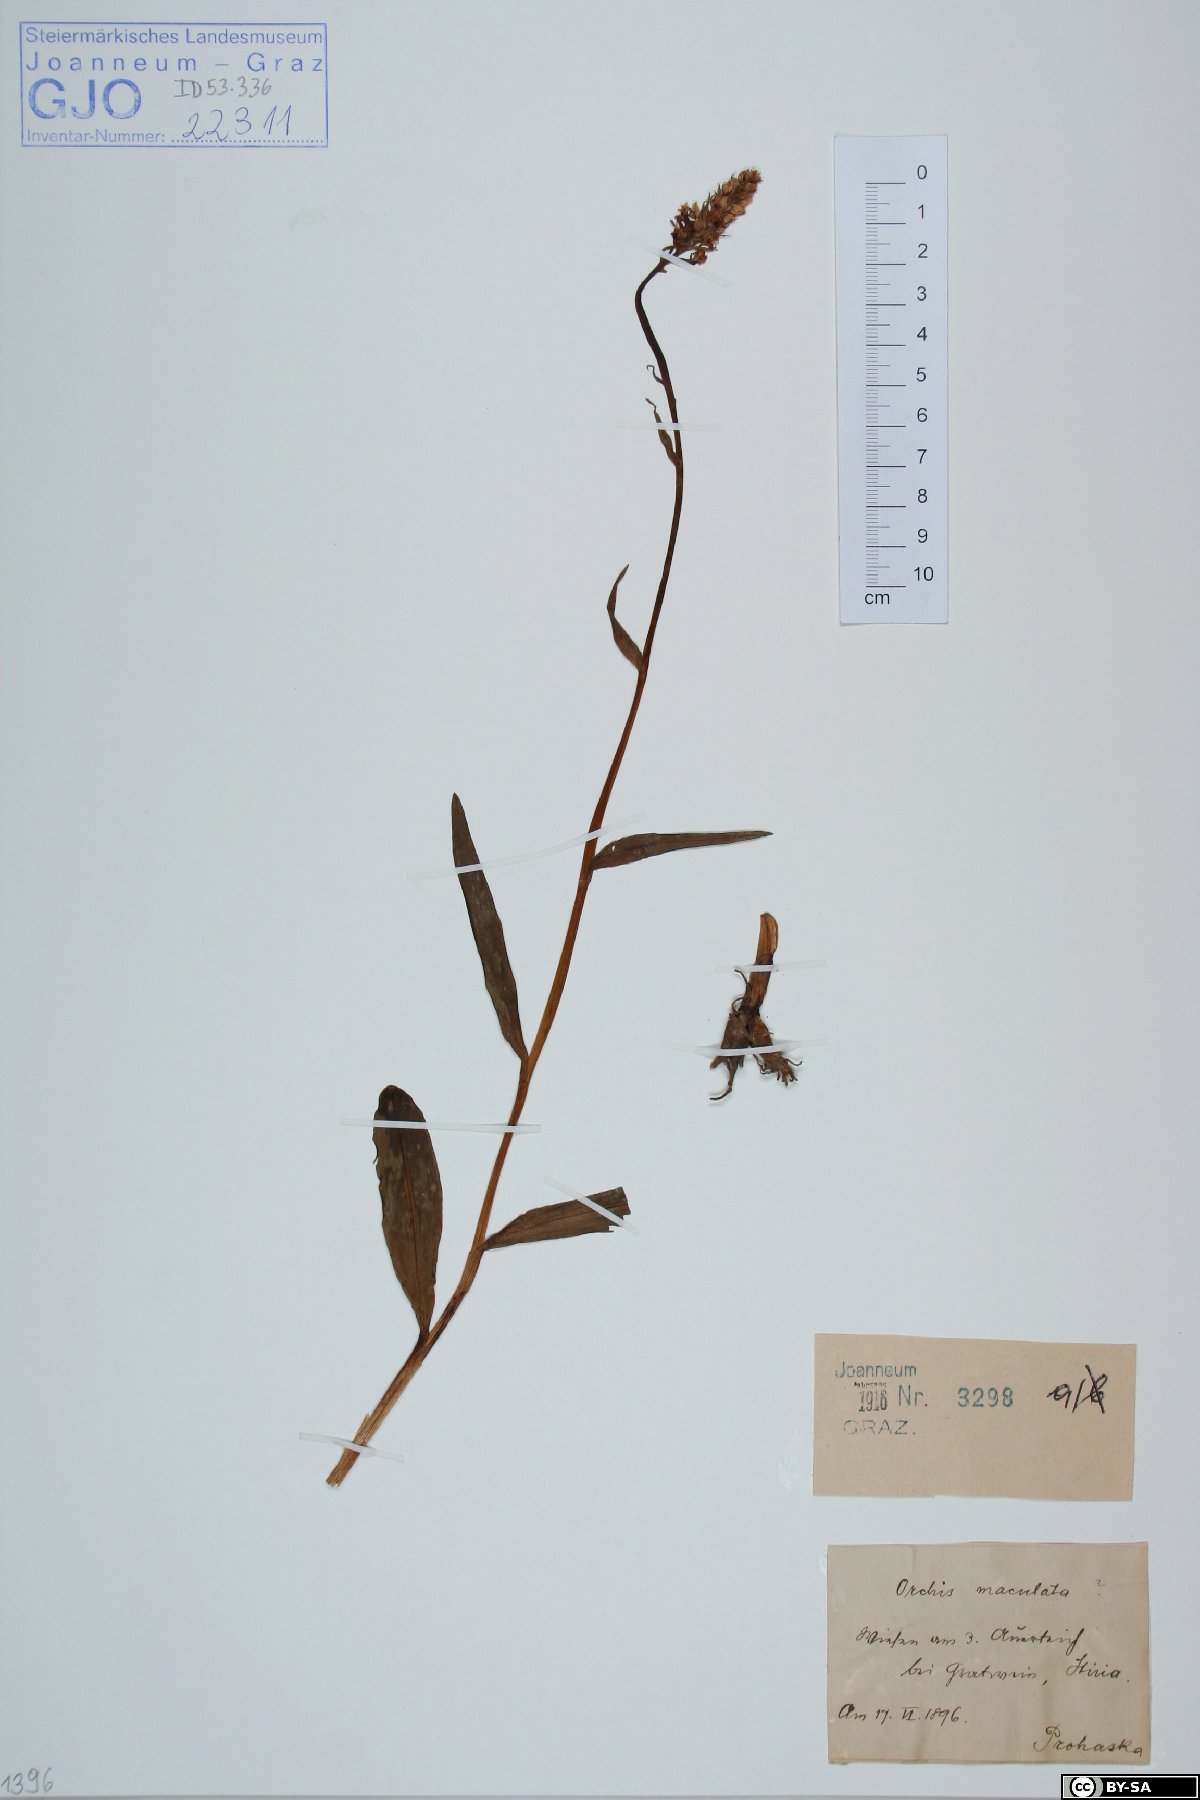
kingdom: Plantae
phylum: Tracheophyta
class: Liliopsida
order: Asparagales
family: Orchidaceae
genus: Dactylorhiza
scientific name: Dactylorhiza maculata
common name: Heath spotted-orchid
